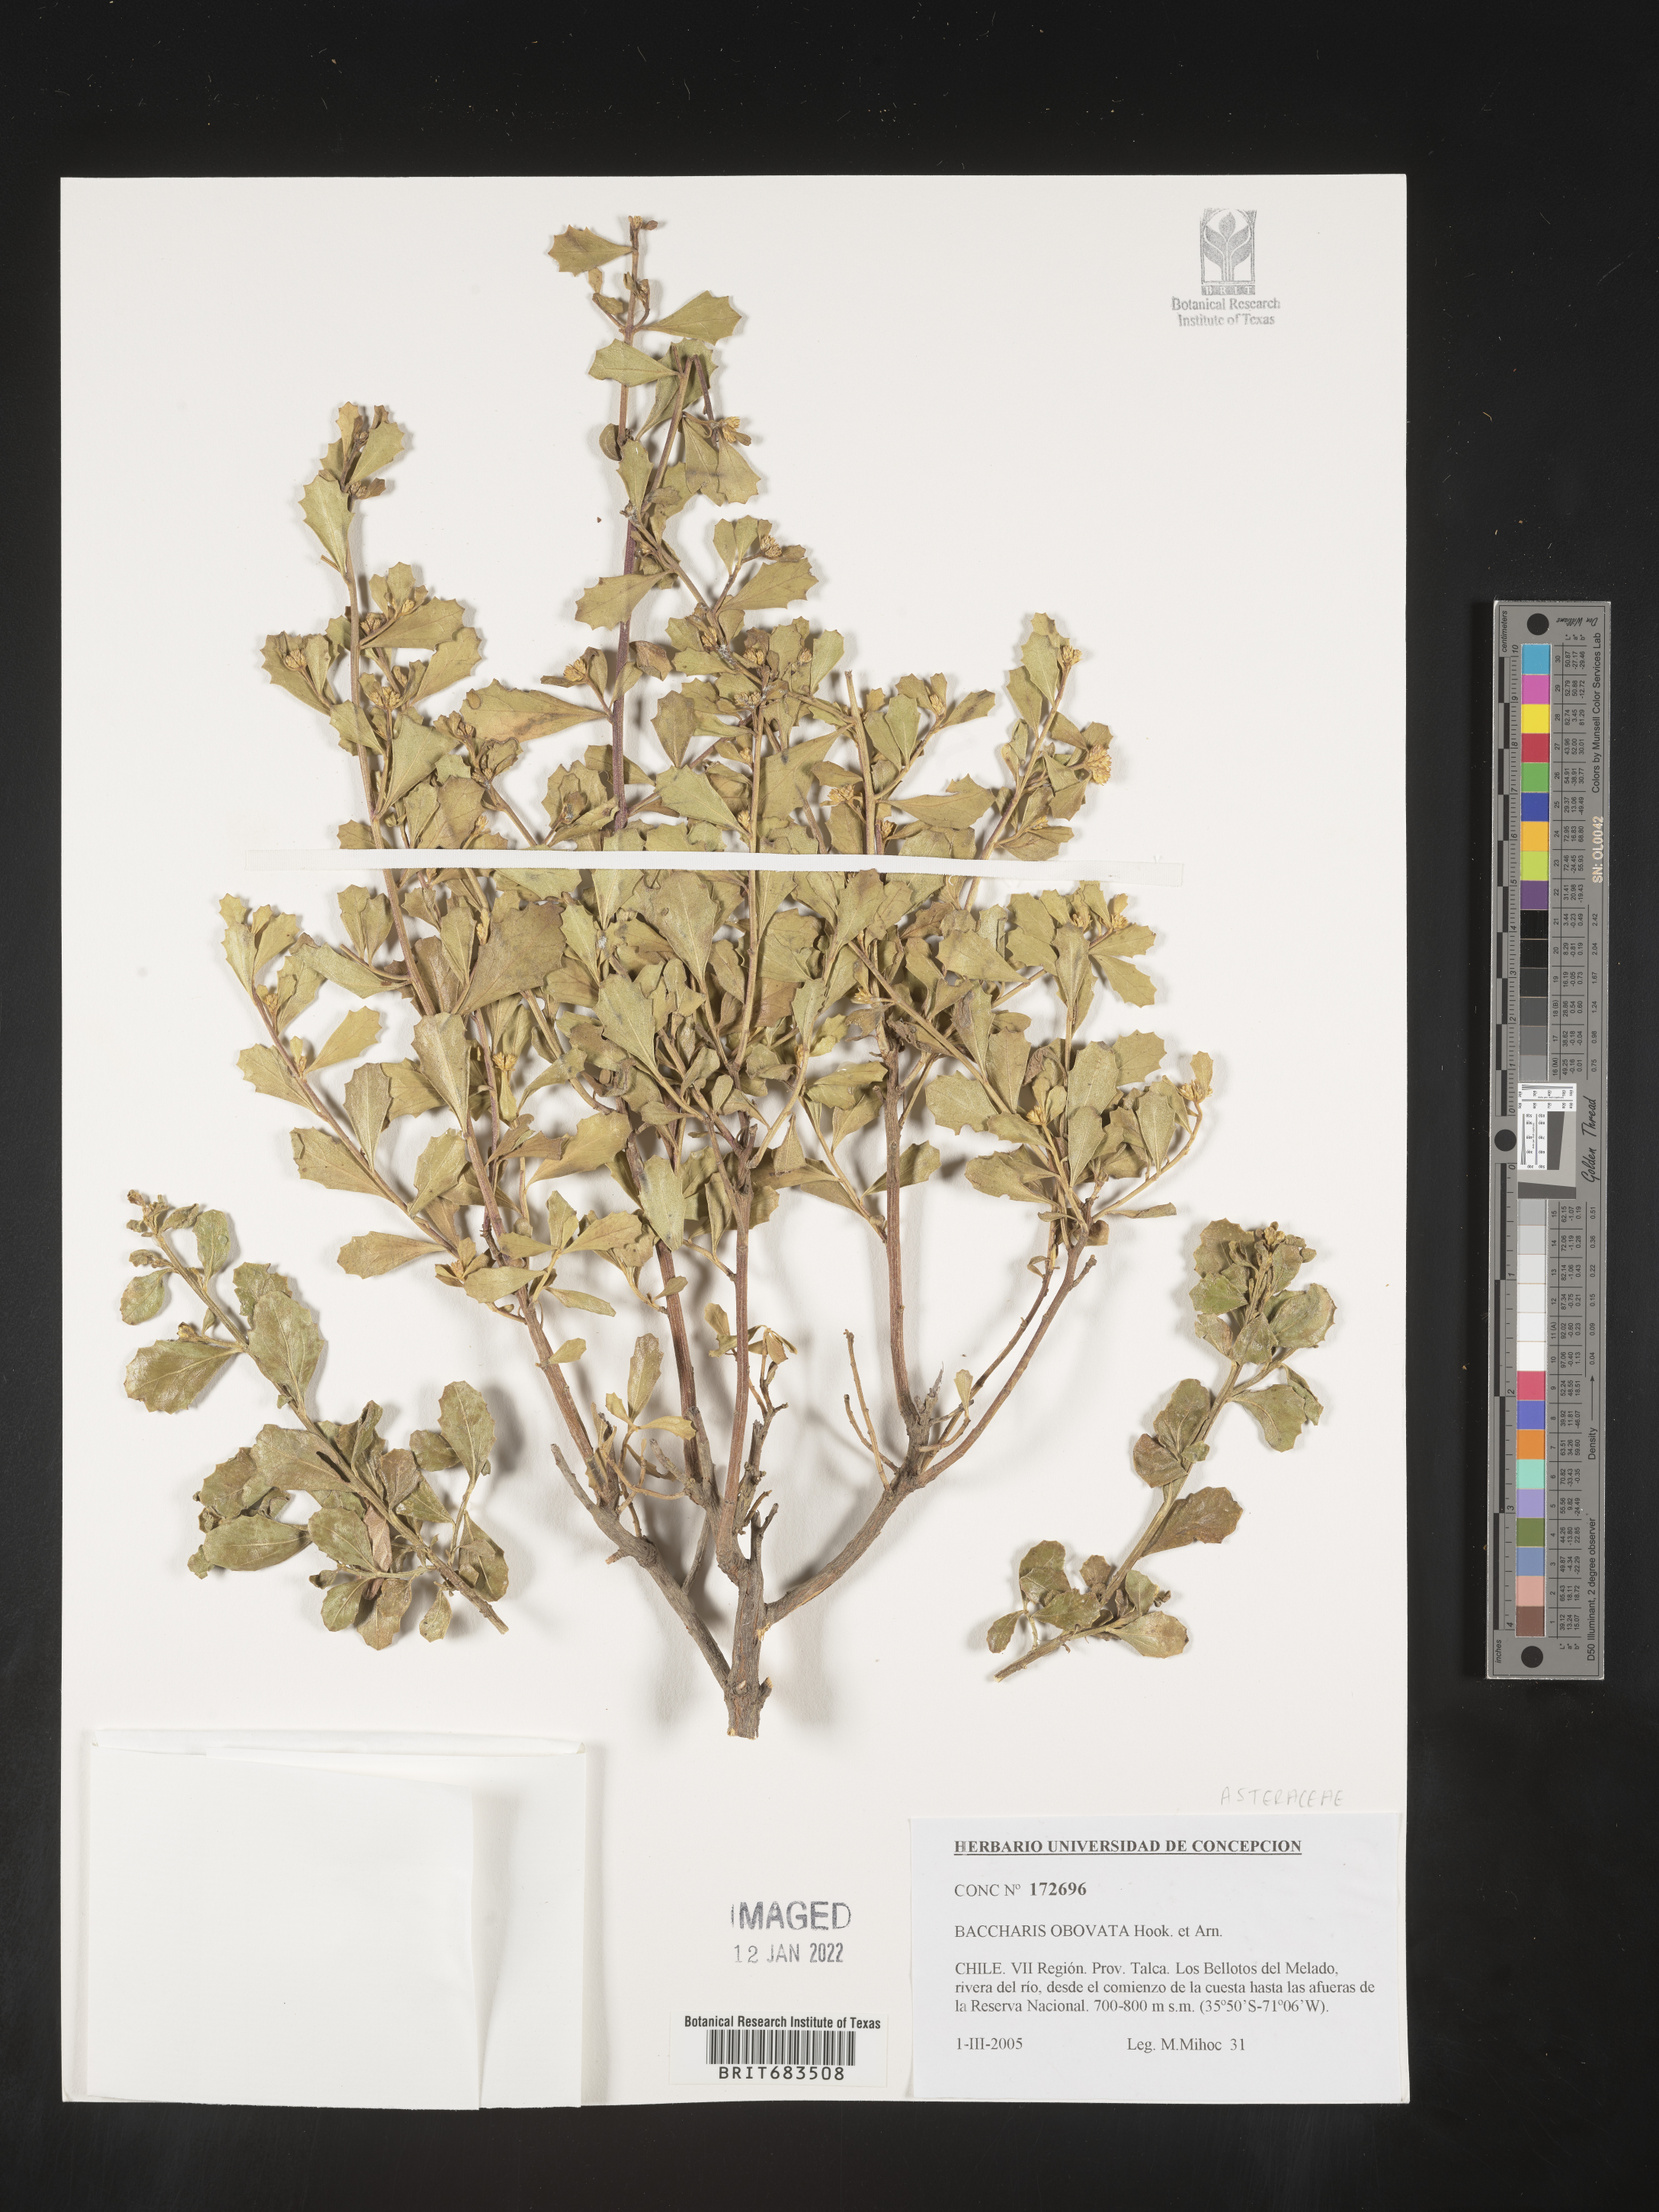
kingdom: Plantae
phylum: Tracheophyta
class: Magnoliopsida
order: Asterales
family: Asteraceae
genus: Baccharis
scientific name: Baccharis
